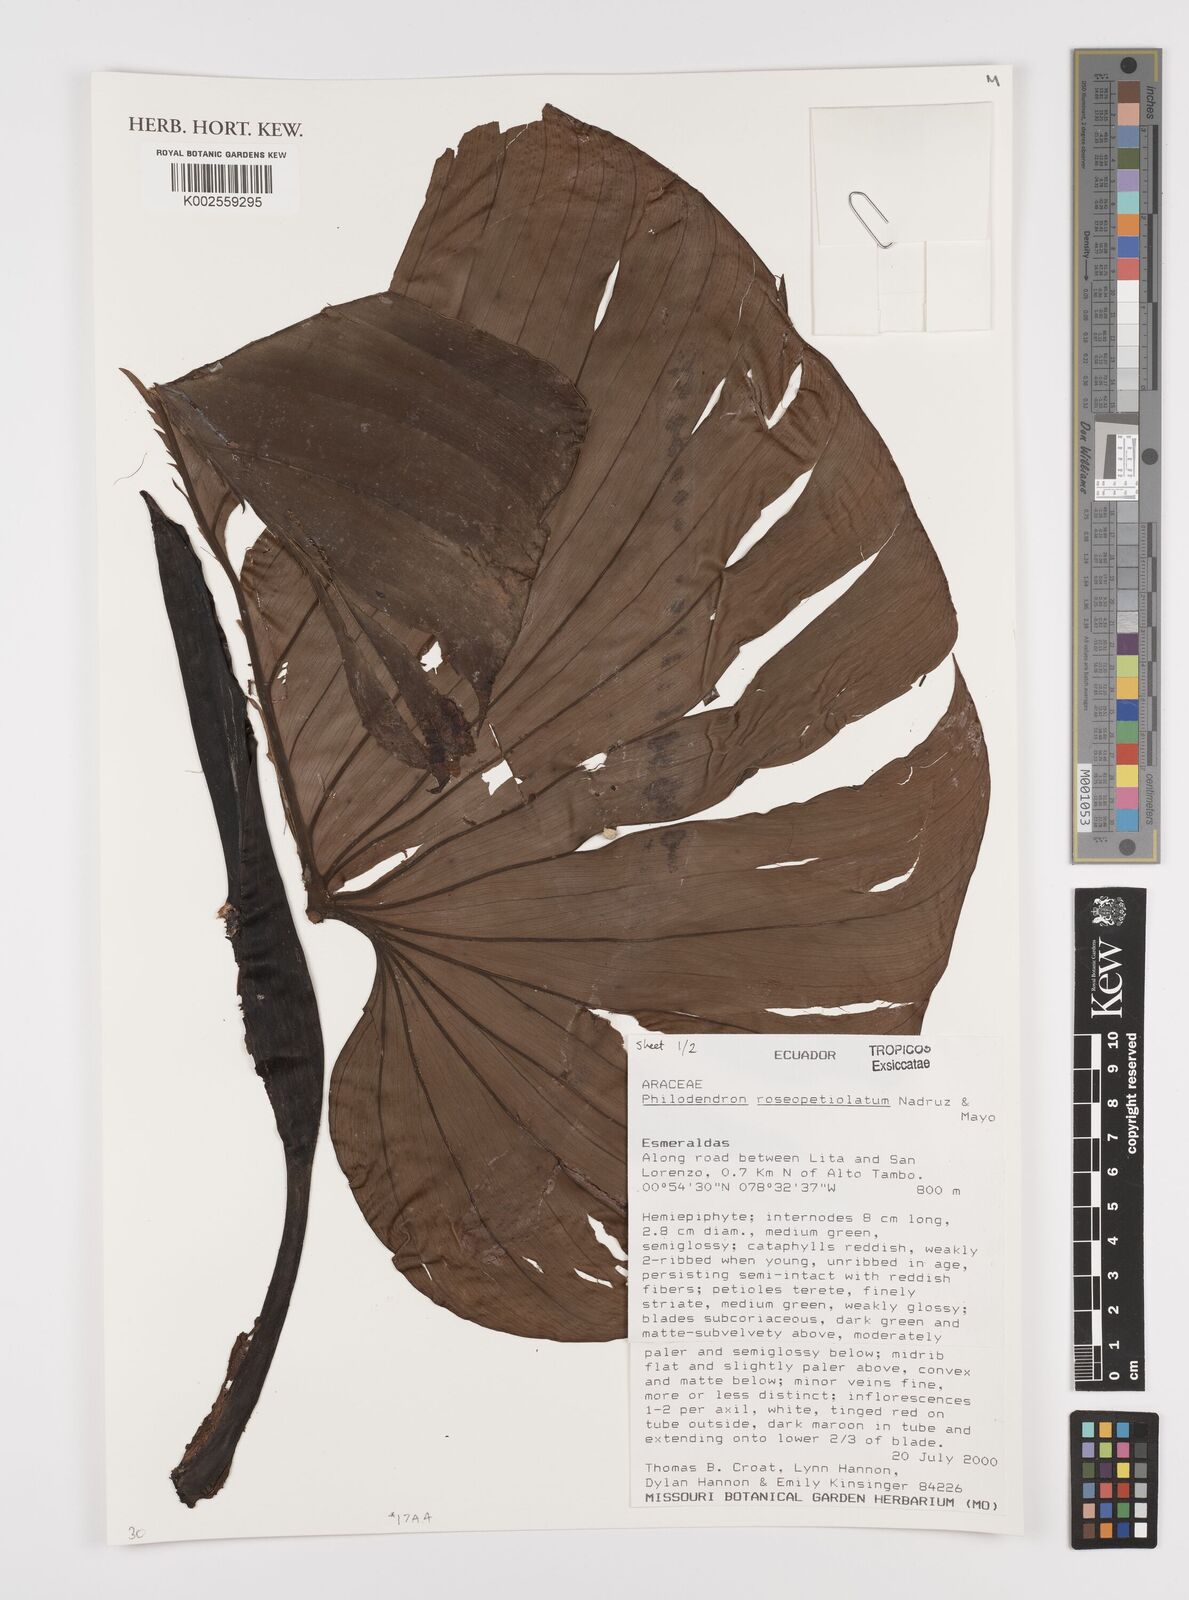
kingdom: Plantae
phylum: Tracheophyta
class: Liliopsida
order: Alismatales
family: Araceae
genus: Philodendron
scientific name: Philodendron roseocataphyllum
